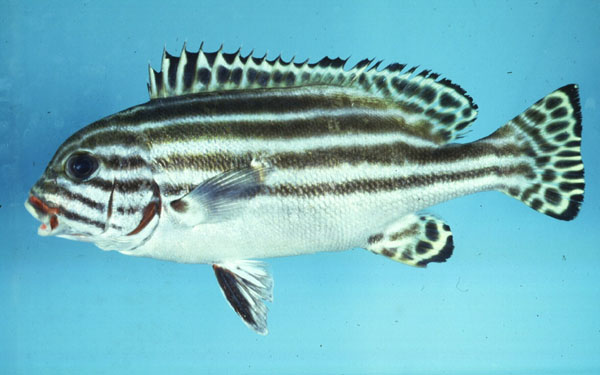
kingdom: Animalia
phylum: Chordata
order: Perciformes
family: Haemulidae
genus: Plectorhinchus
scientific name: Plectorhinchus diagrammus
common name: Striped sweetlips
